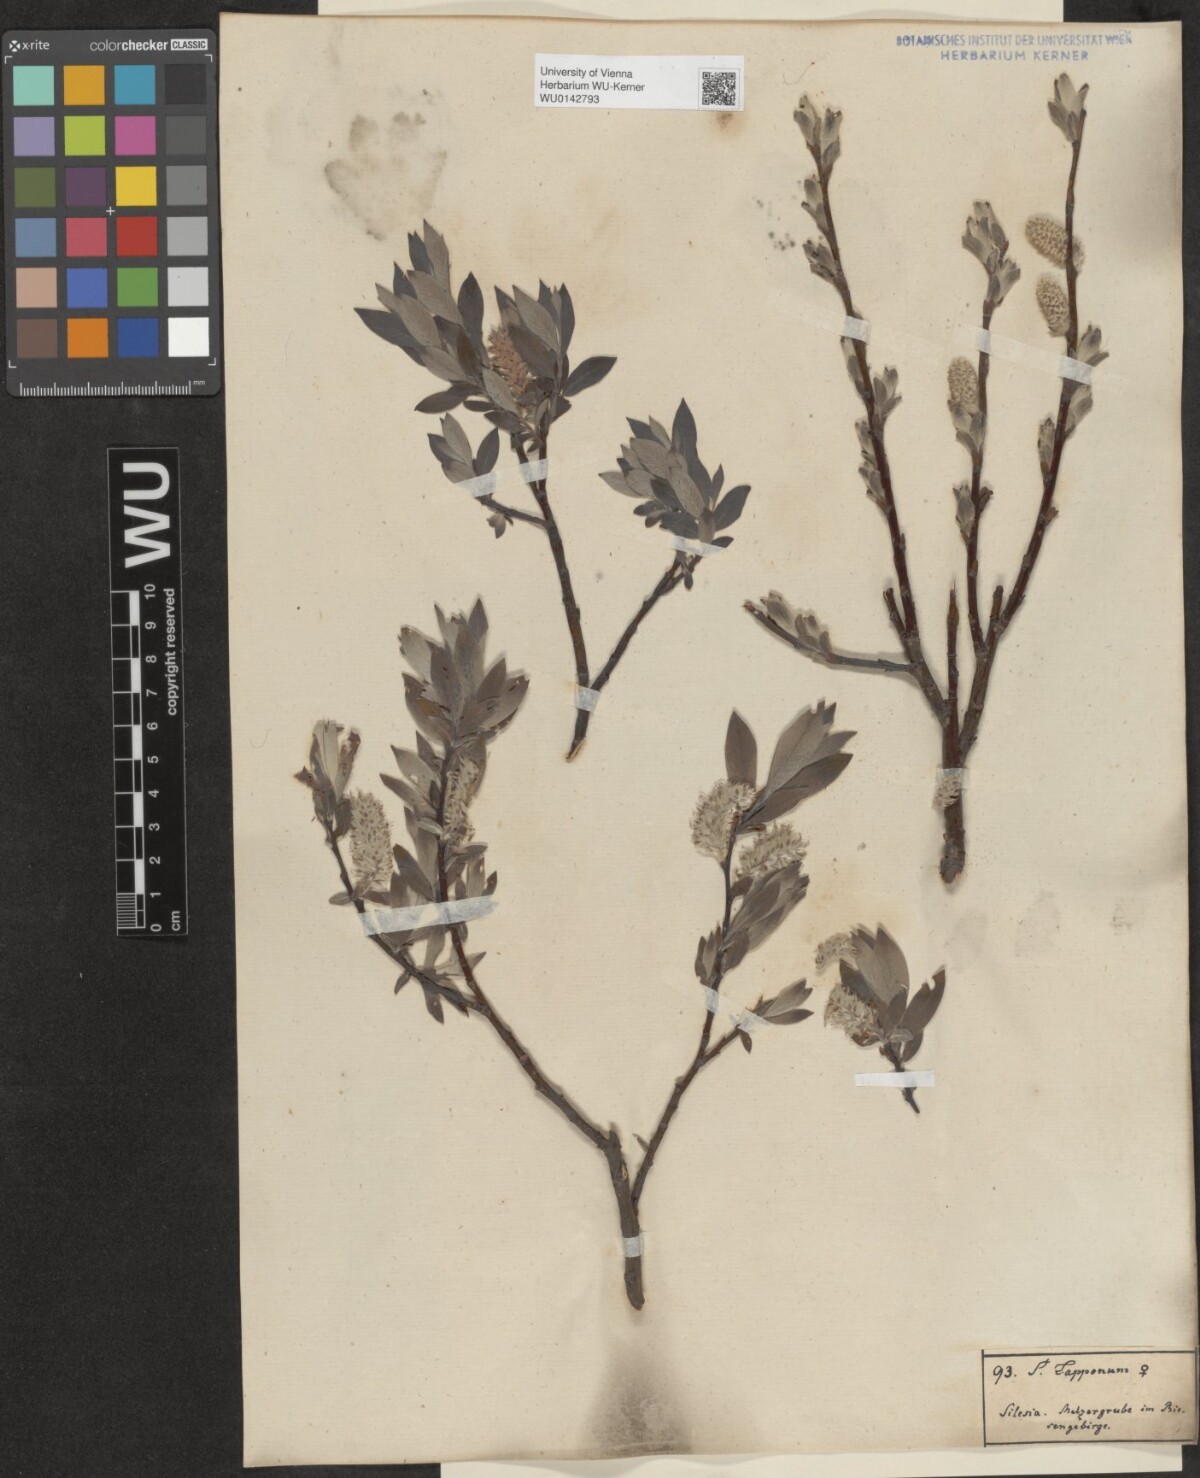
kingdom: Plantae
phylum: Tracheophyta
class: Magnoliopsida
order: Malpighiales
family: Salicaceae
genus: Salix
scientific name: Salix lapponum
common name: Downy willow
